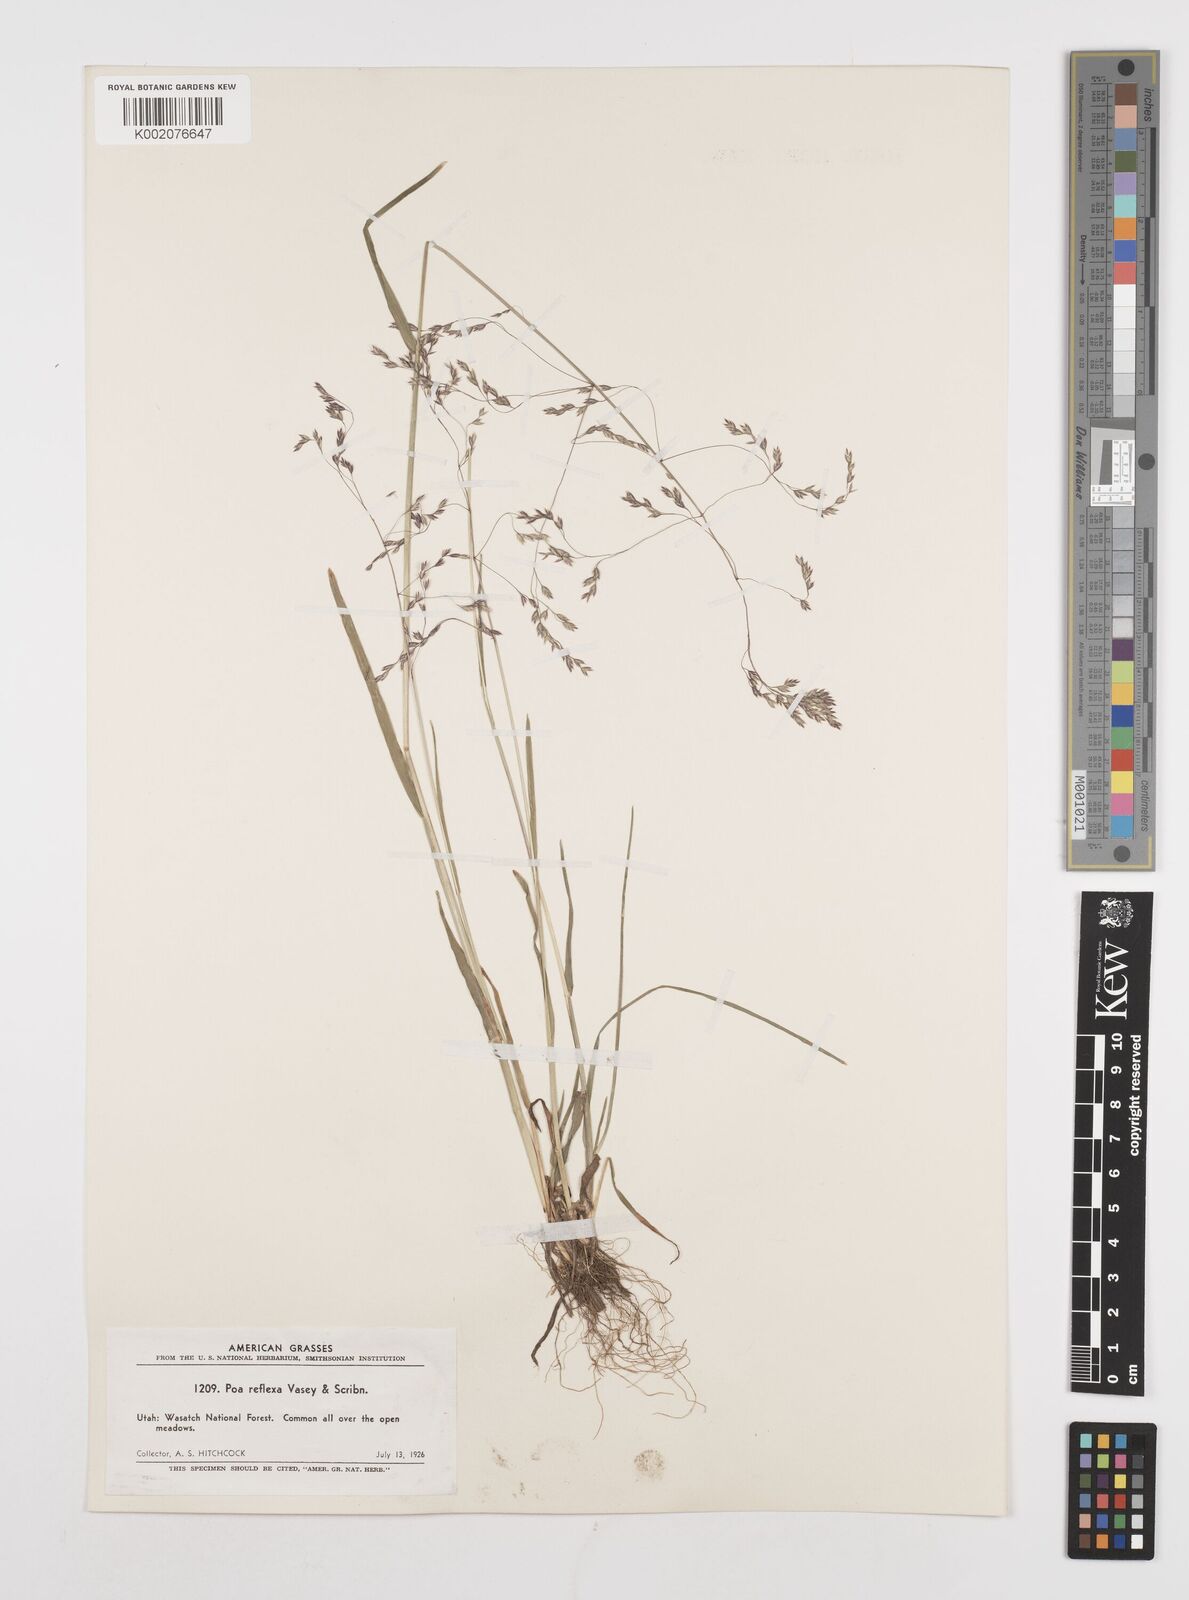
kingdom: Plantae
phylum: Tracheophyta
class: Liliopsida
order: Poales
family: Poaceae
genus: Poa
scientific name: Poa reflexa
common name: Nodding bluegrass
